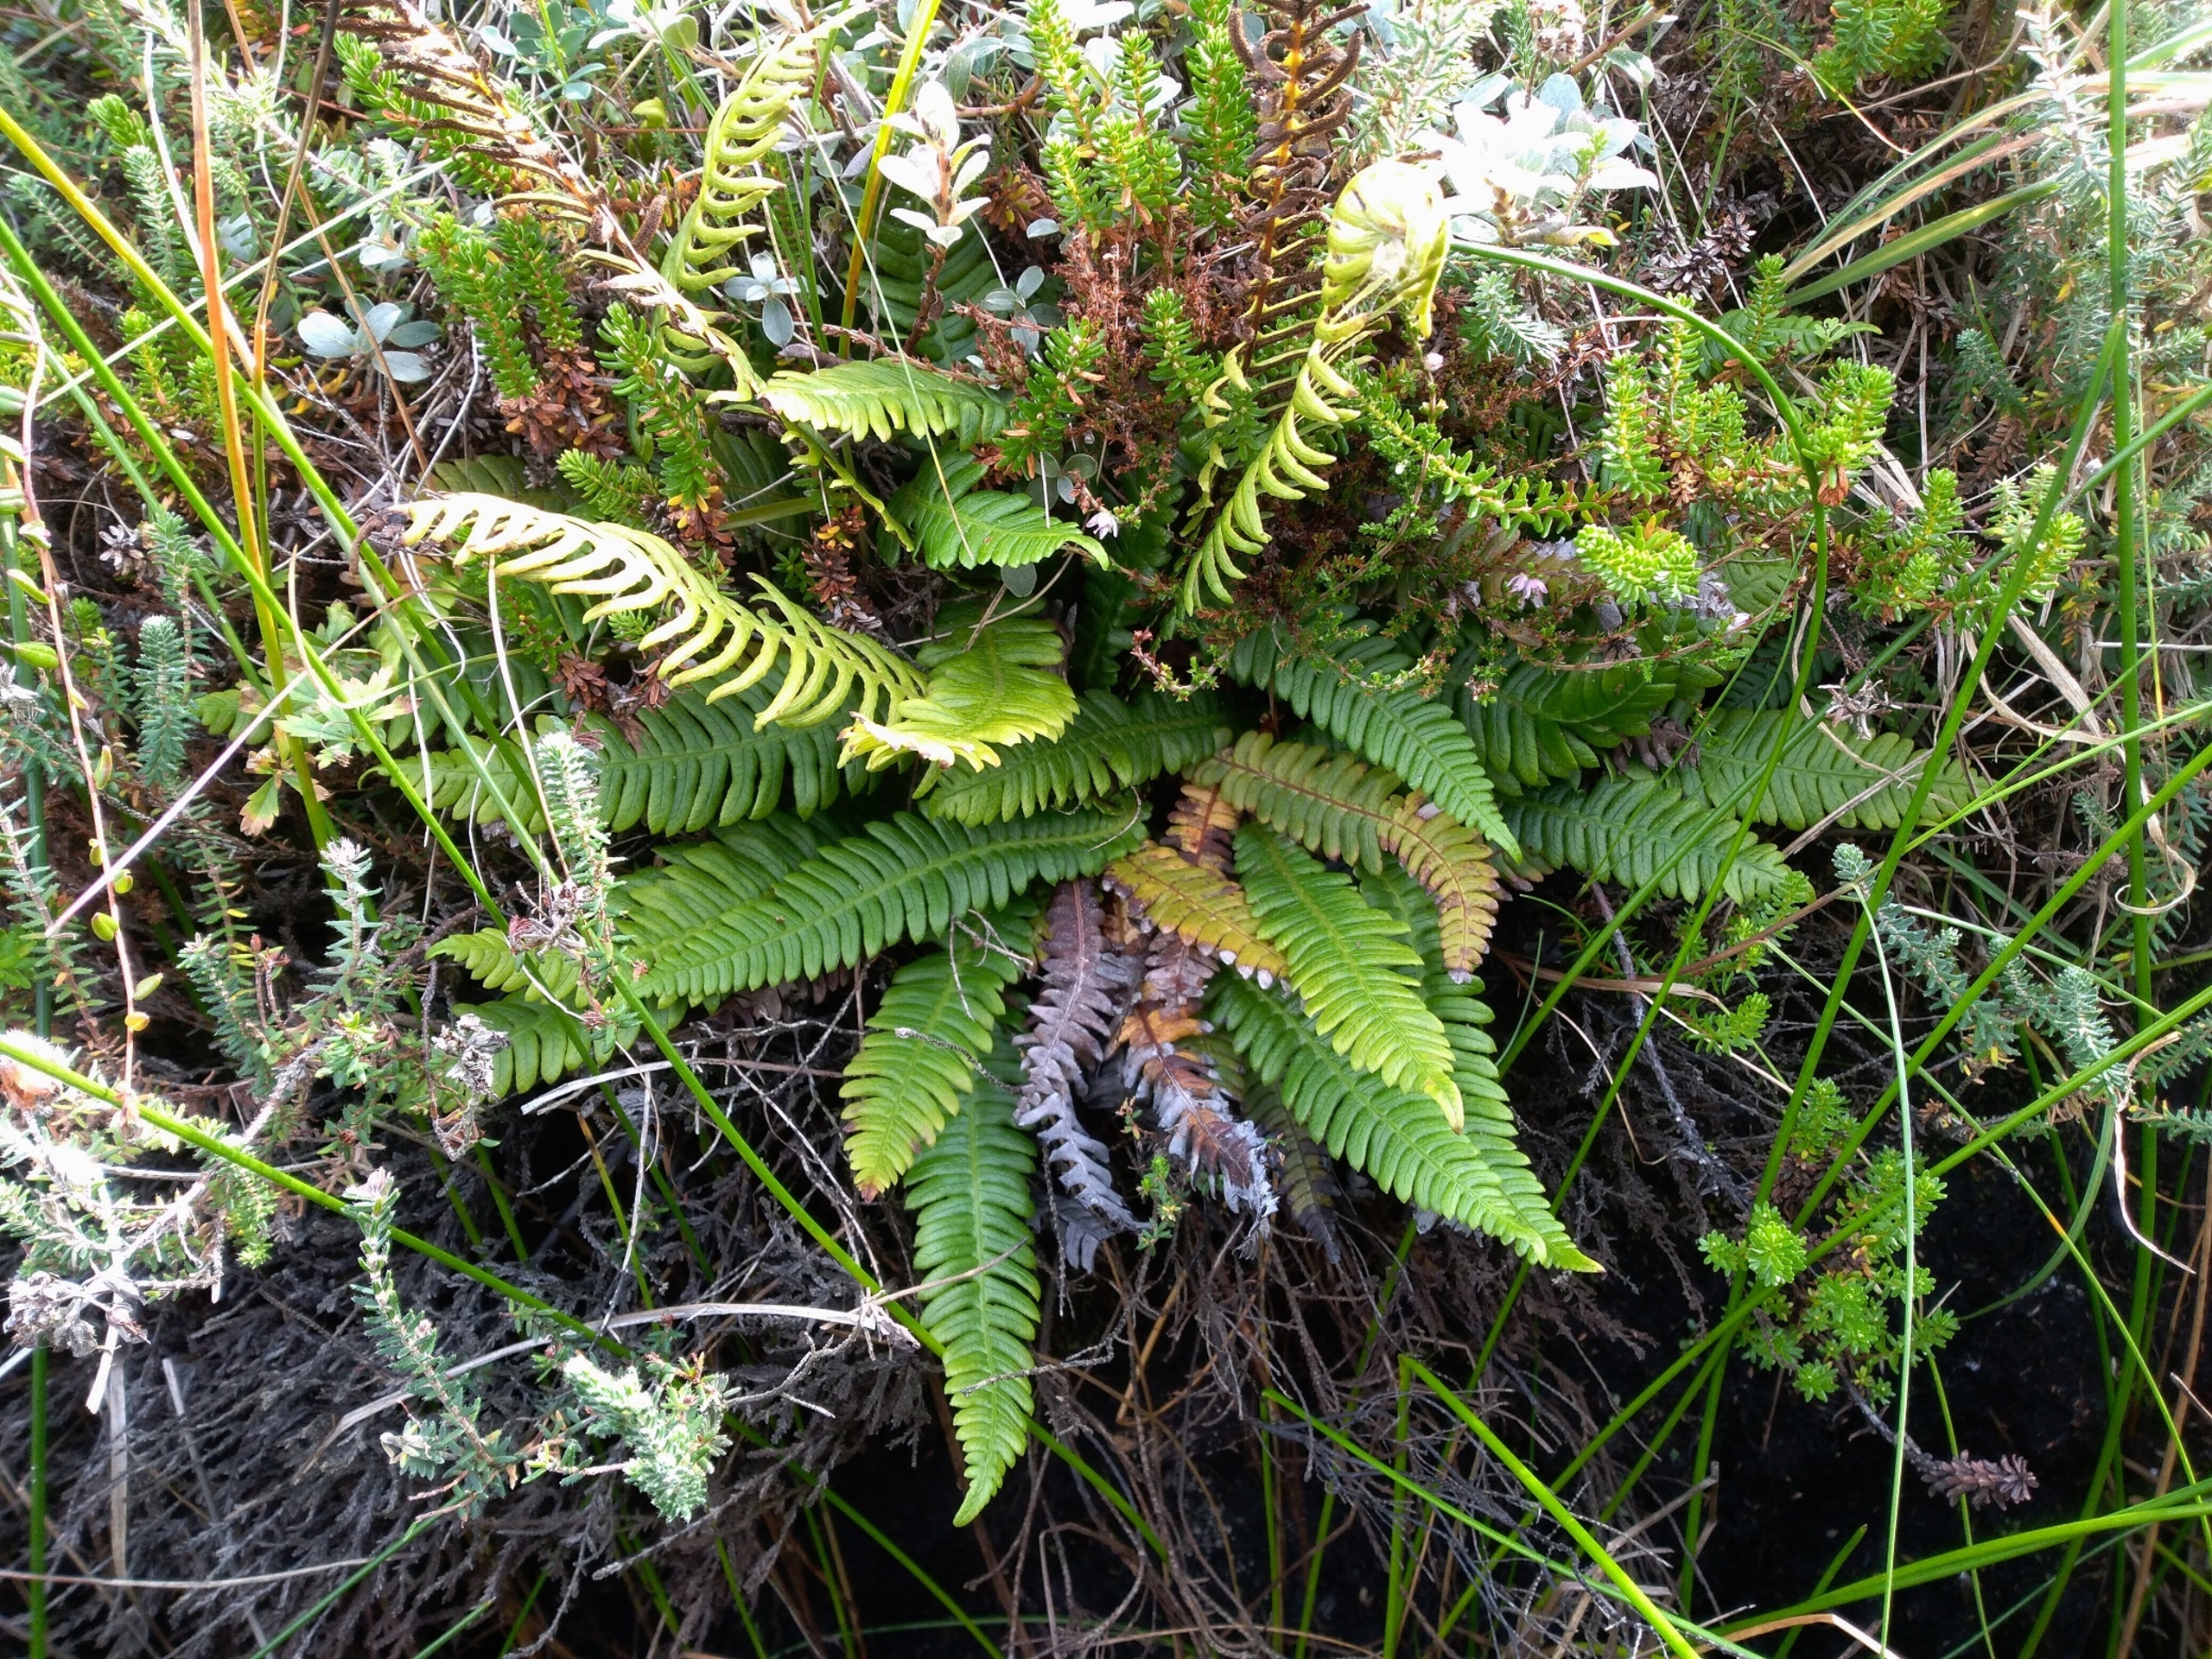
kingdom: Plantae
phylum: Tracheophyta
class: Polypodiopsida
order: Polypodiales
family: Blechnaceae
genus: Struthiopteris
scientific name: Struthiopteris spicant
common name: Kambregne
